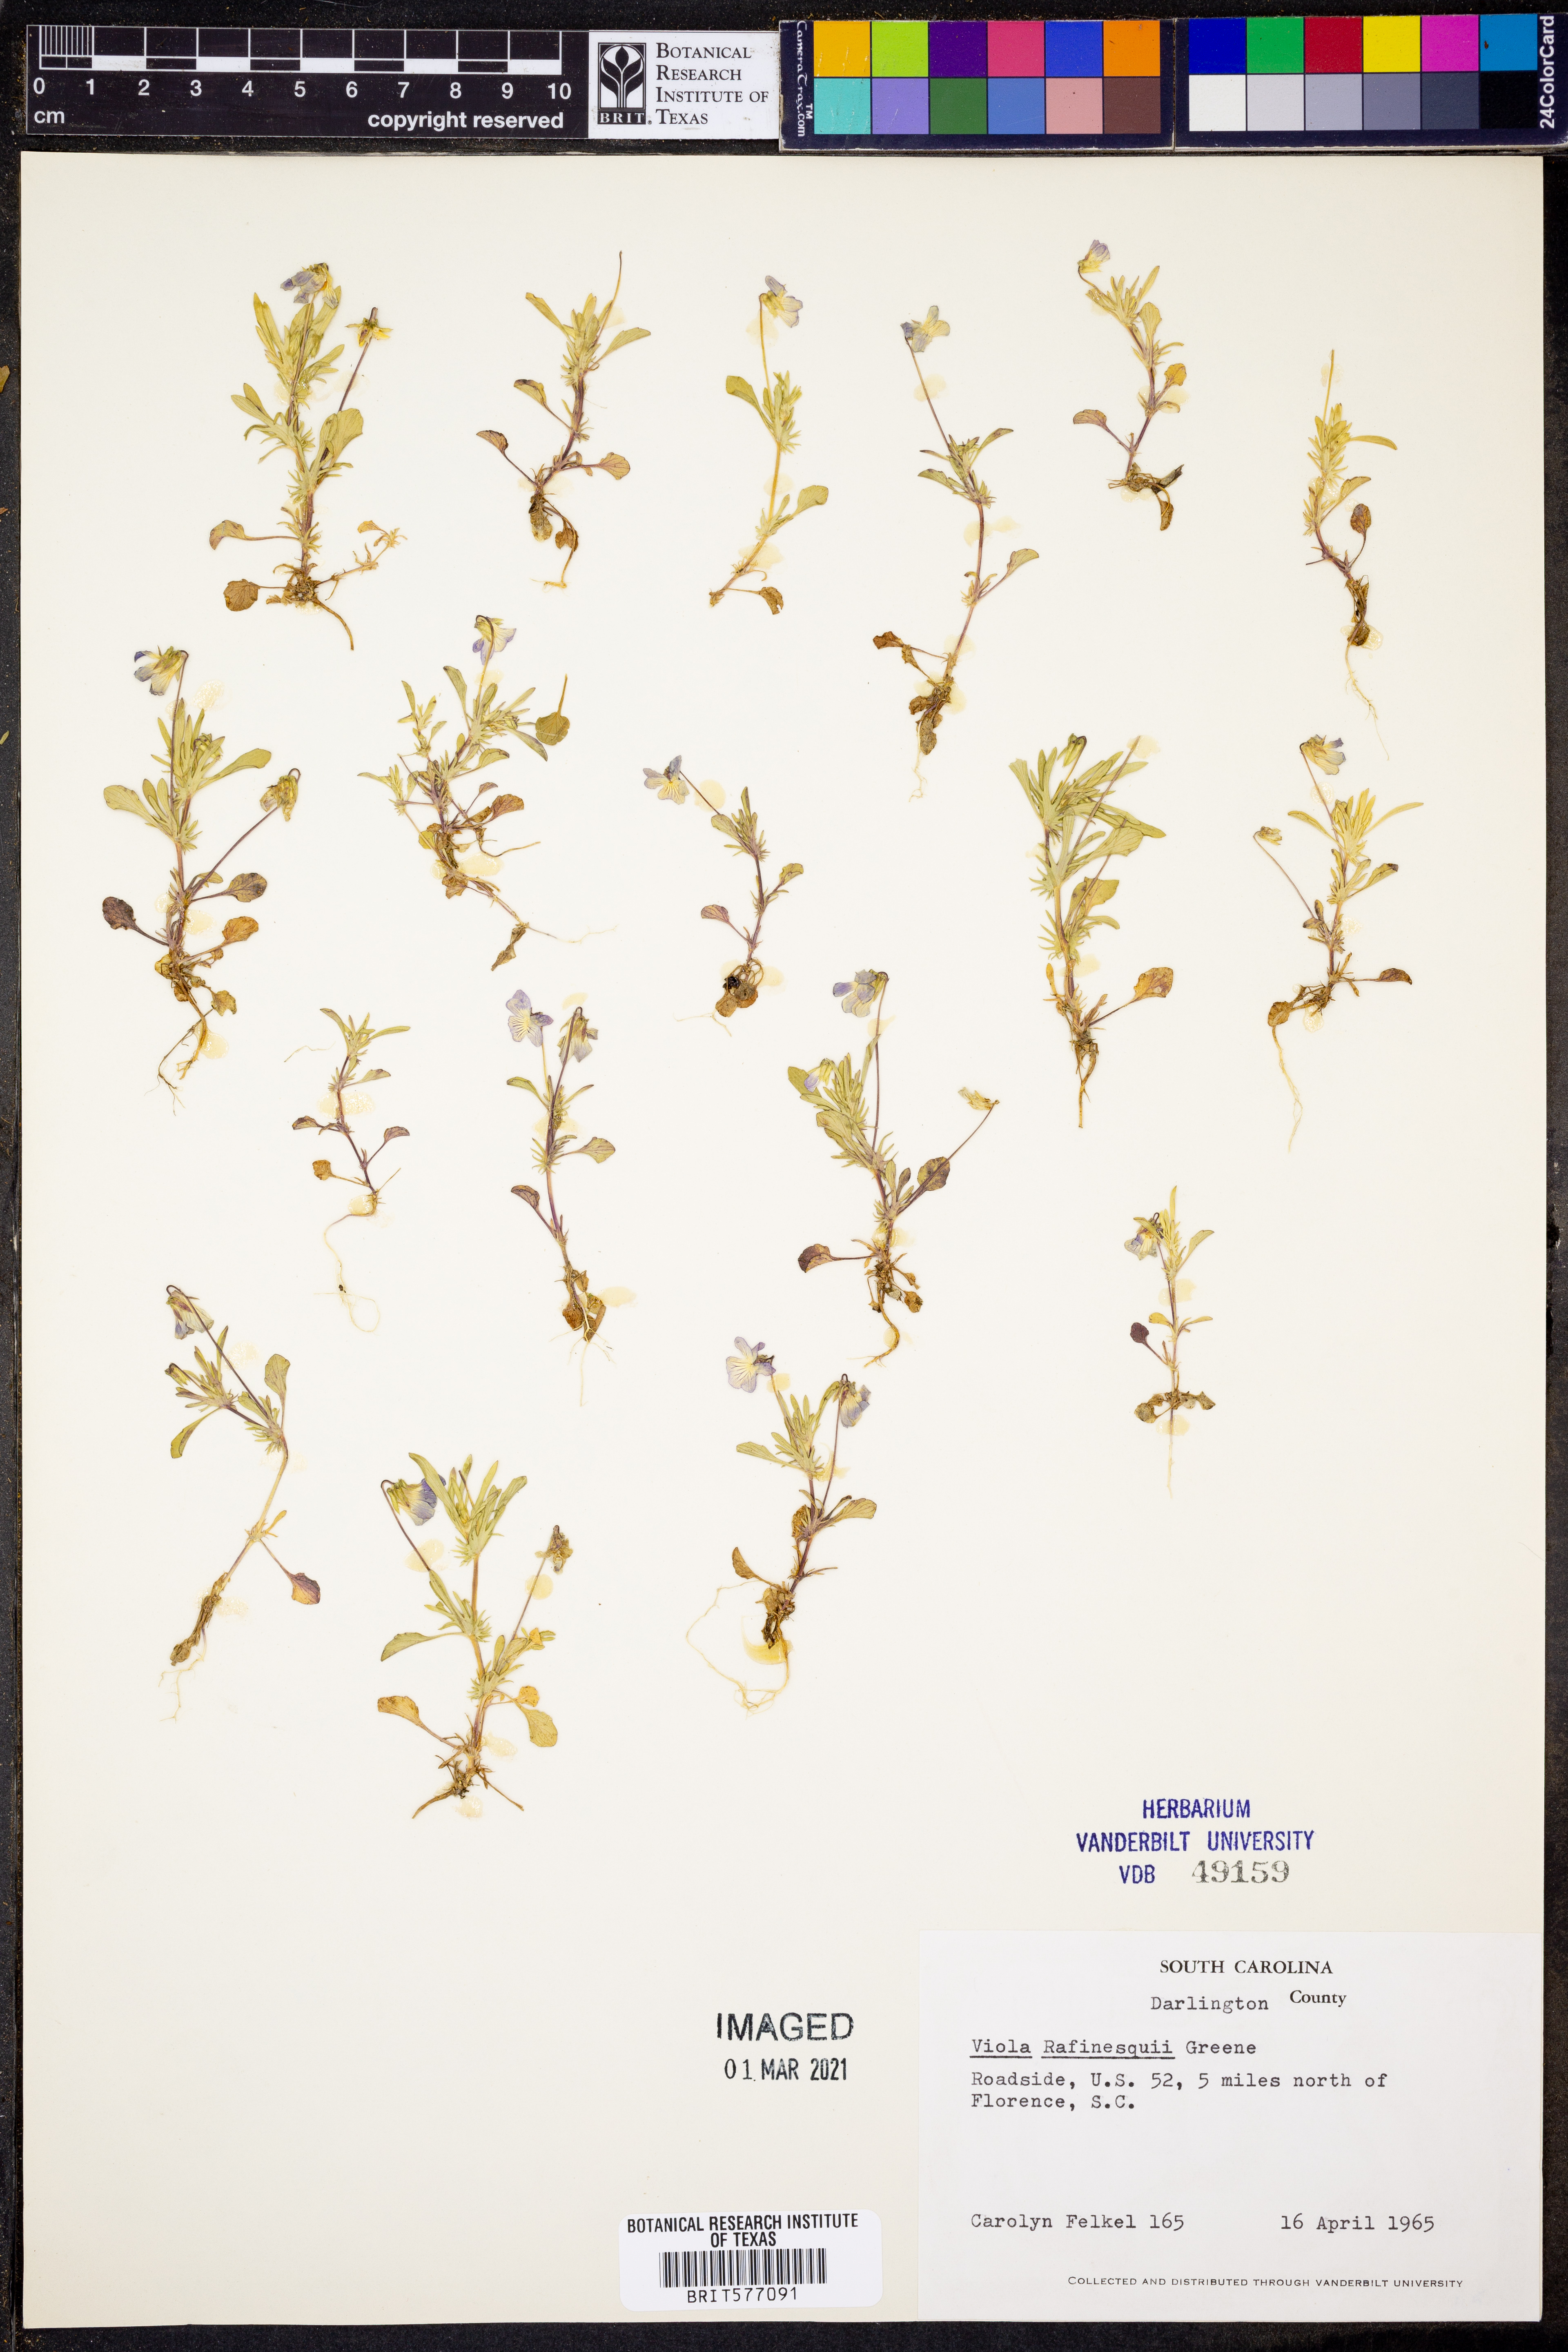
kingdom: Plantae
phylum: Tracheophyta
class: Magnoliopsida
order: Malpighiales
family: Violaceae
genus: Viola
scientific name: Viola rafinesquei
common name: American field pansy
